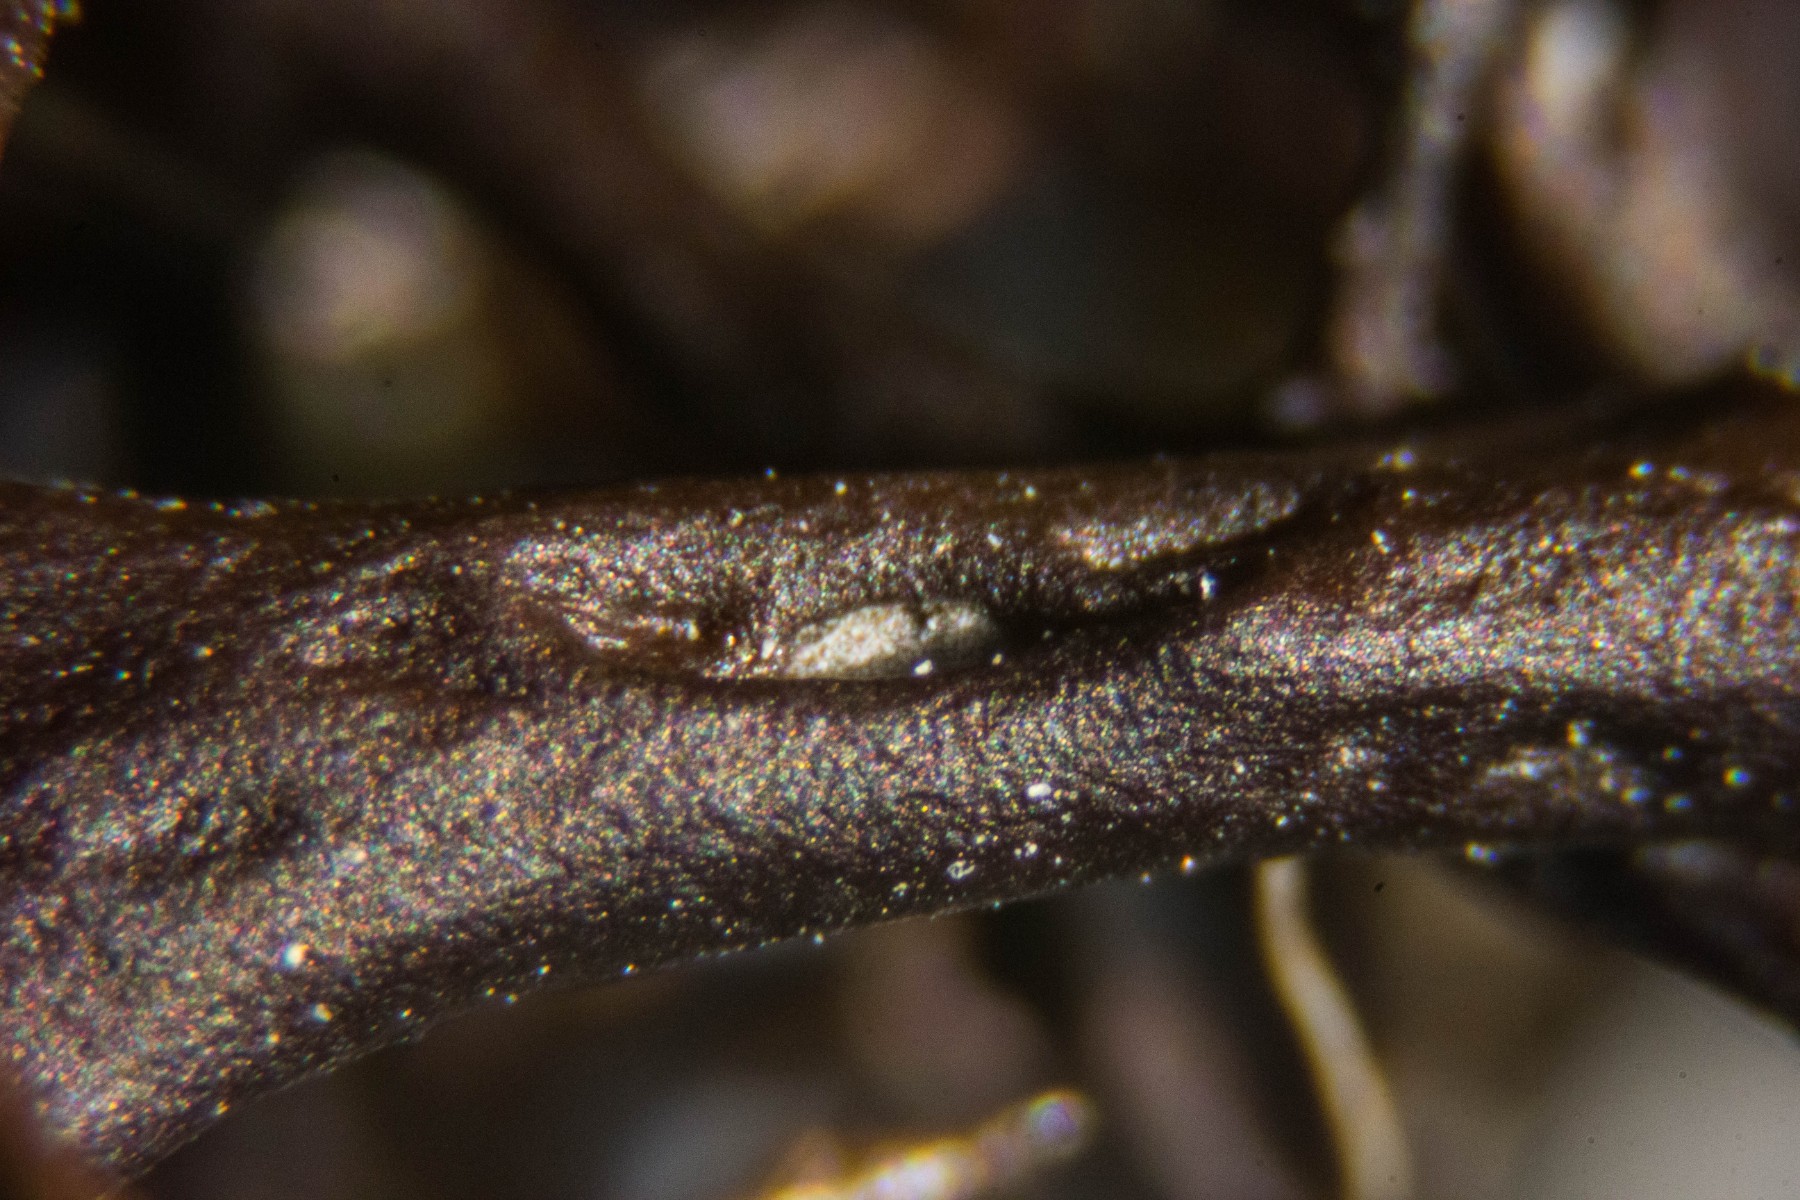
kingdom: Fungi
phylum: Ascomycota
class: Lecanoromycetes
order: Lecanorales
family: Parmeliaceae
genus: Cetraria
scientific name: Cetraria aculeata
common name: grubet tjørnelav
